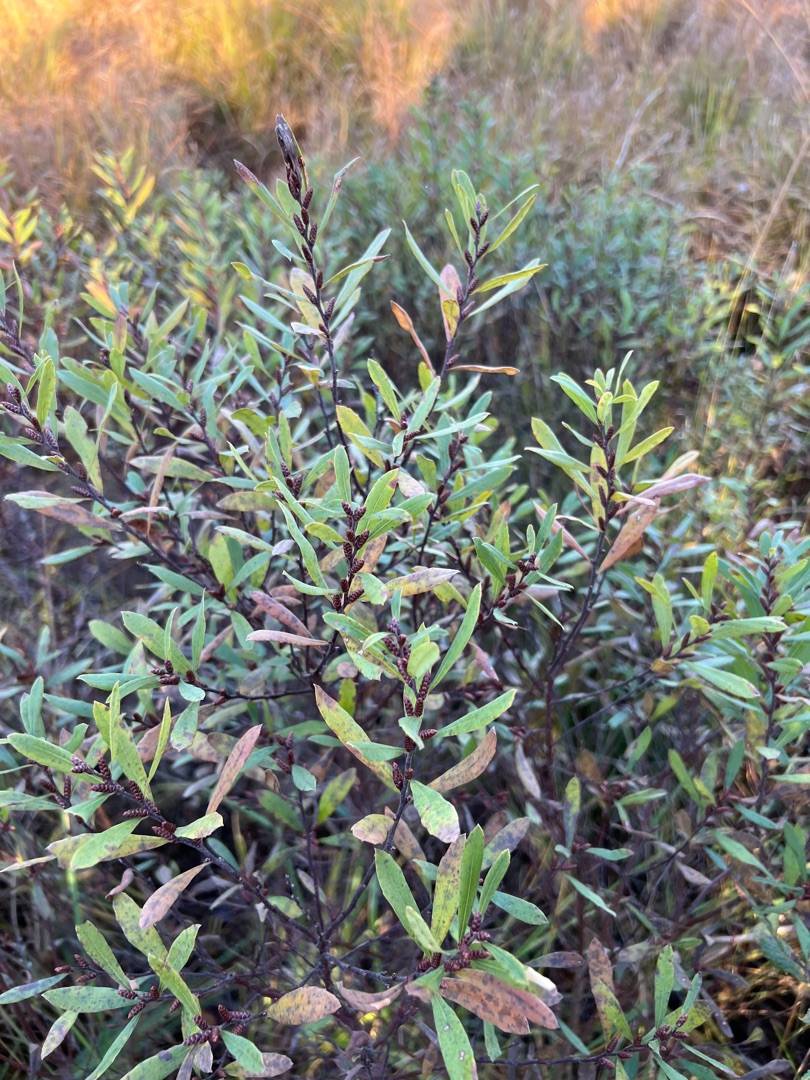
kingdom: Plantae
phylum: Tracheophyta
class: Magnoliopsida
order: Fagales
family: Myricaceae
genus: Myrica
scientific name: Myrica gale
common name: Pors
